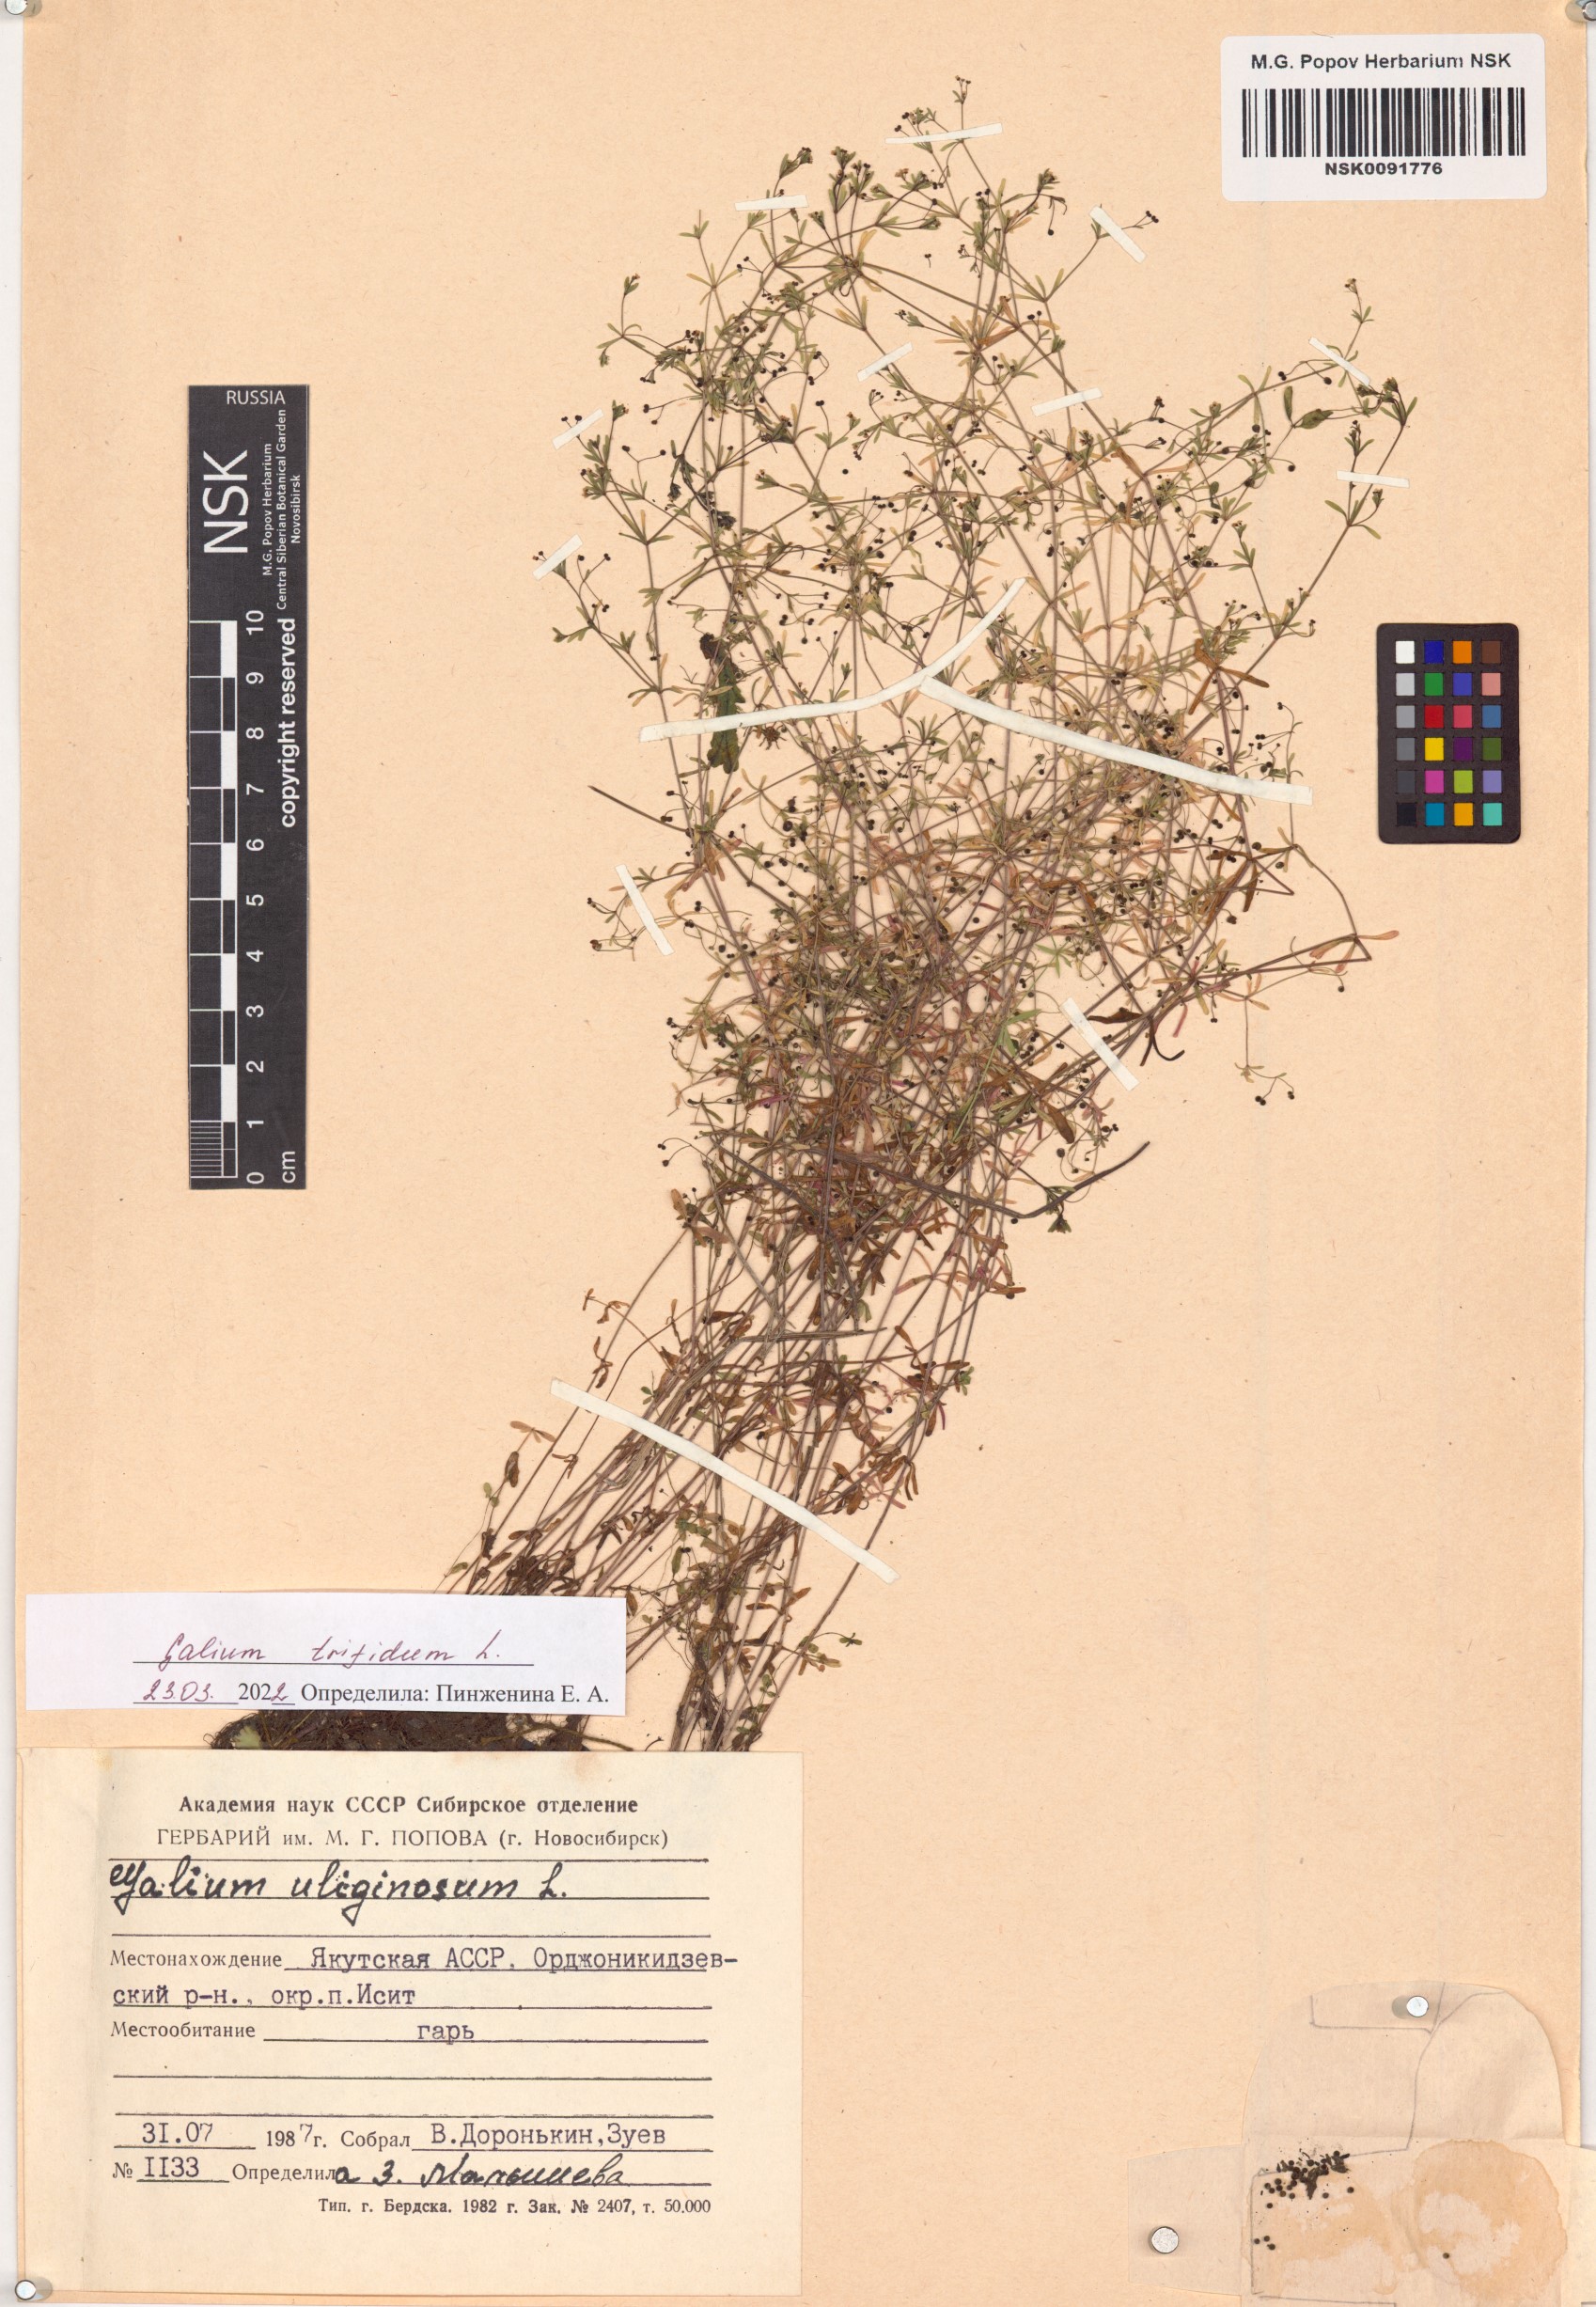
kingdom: Plantae
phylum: Tracheophyta
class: Magnoliopsida
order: Gentianales
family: Rubiaceae
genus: Galium
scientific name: Galium trifidum
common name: Small bedstraw
